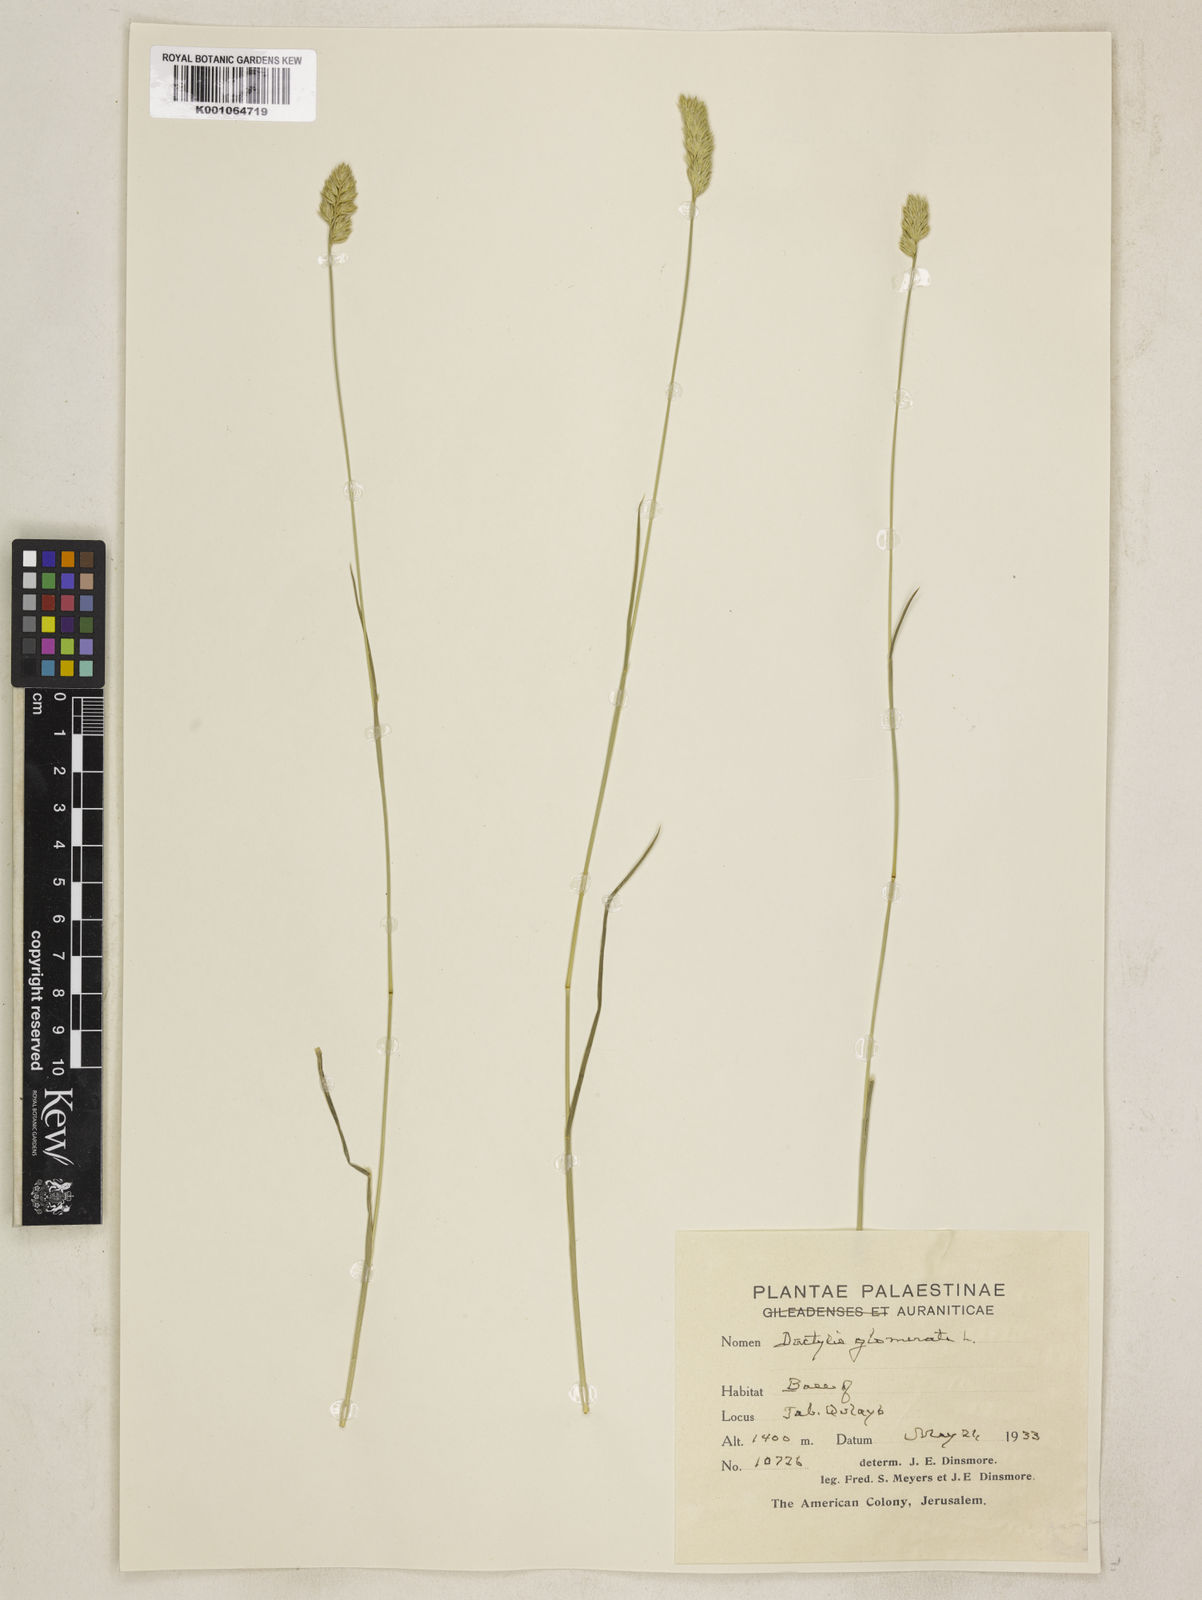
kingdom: Plantae
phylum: Tracheophyta
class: Liliopsida
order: Poales
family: Poaceae
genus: Dactylis
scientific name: Dactylis glomerata
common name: Orchardgrass
